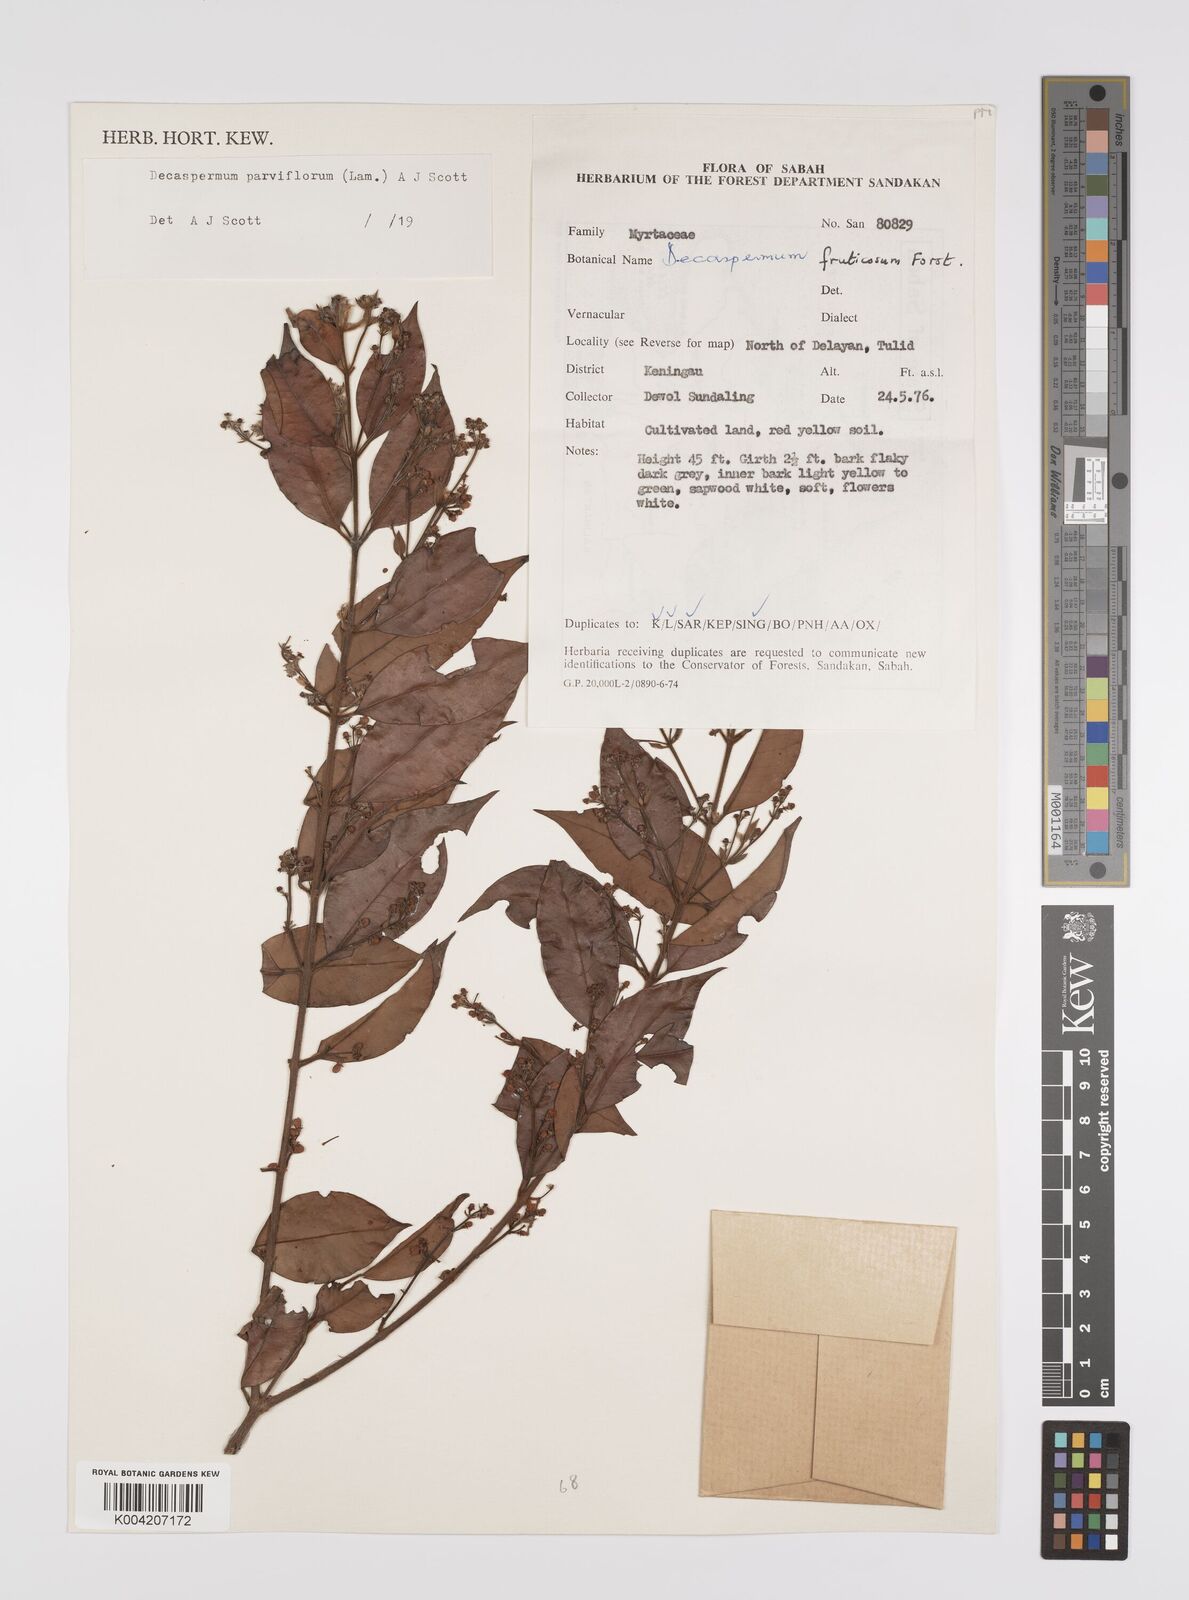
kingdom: Plantae
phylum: Tracheophyta
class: Magnoliopsida
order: Myrtales
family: Myrtaceae
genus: Decaspermum
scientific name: Decaspermum fruticosum
